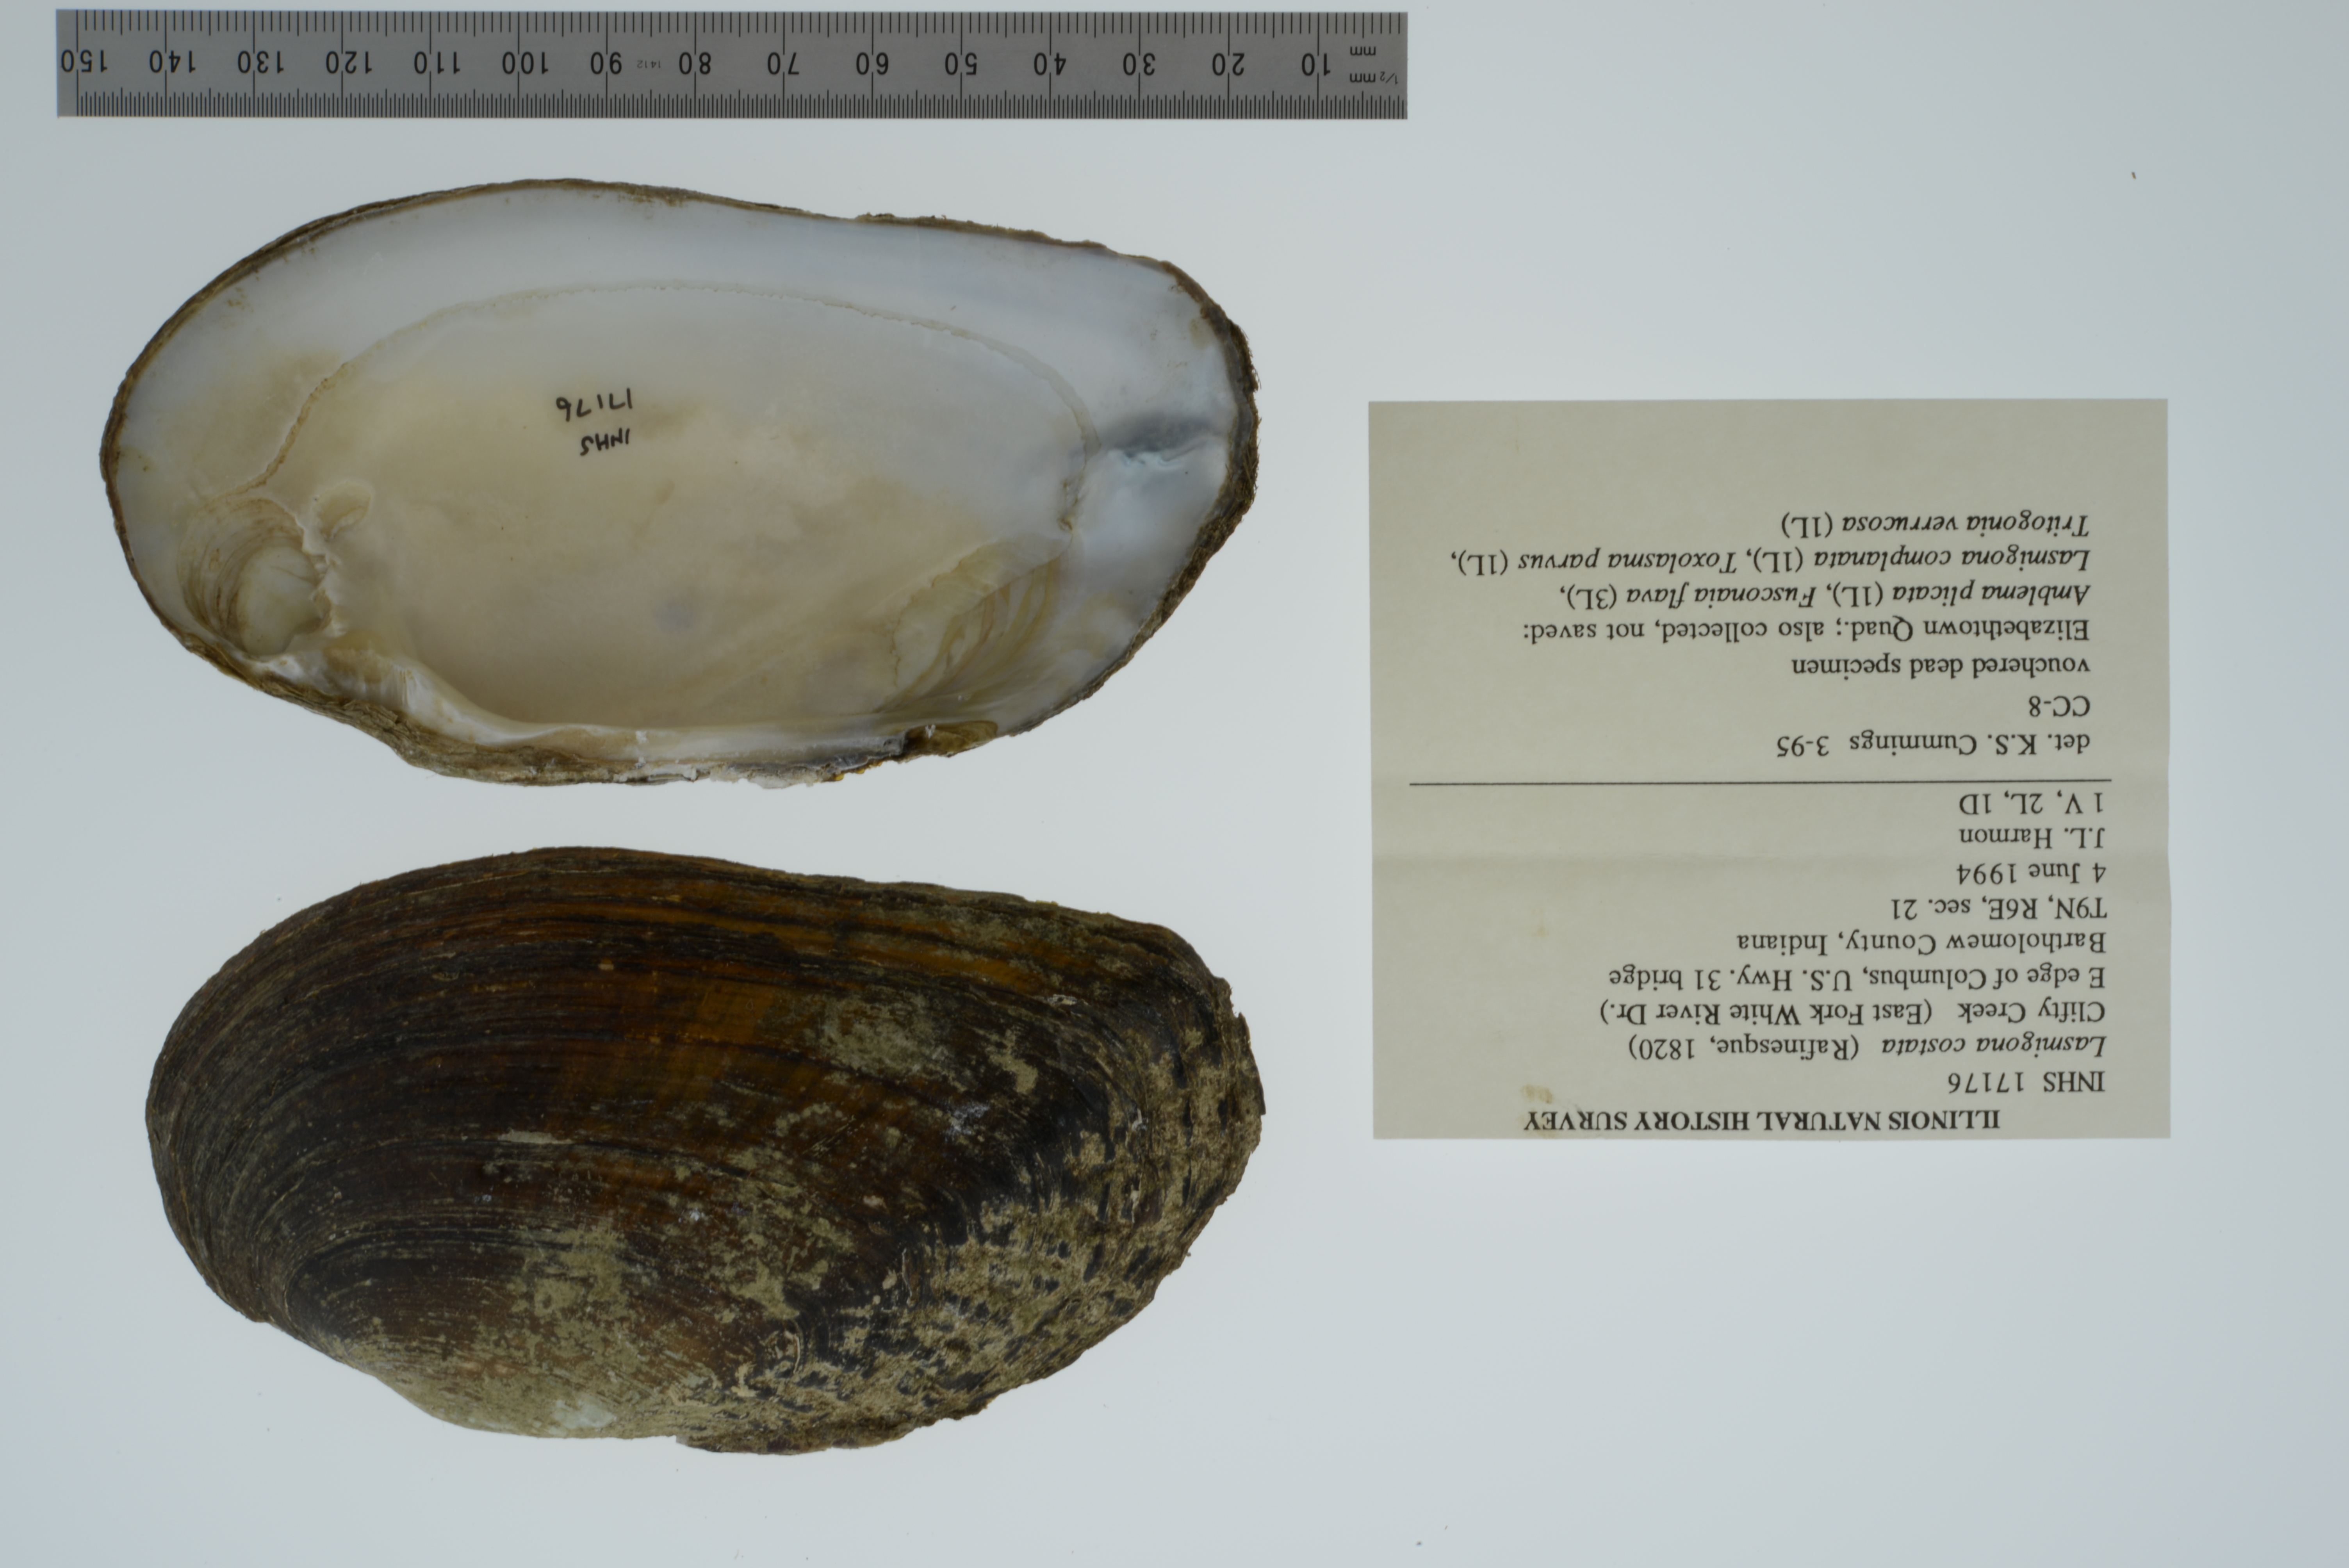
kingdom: Animalia
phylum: Mollusca
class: Bivalvia
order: Unionida
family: Unionidae
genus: Lasmigona
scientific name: Lasmigona costata
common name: Flutedshell
